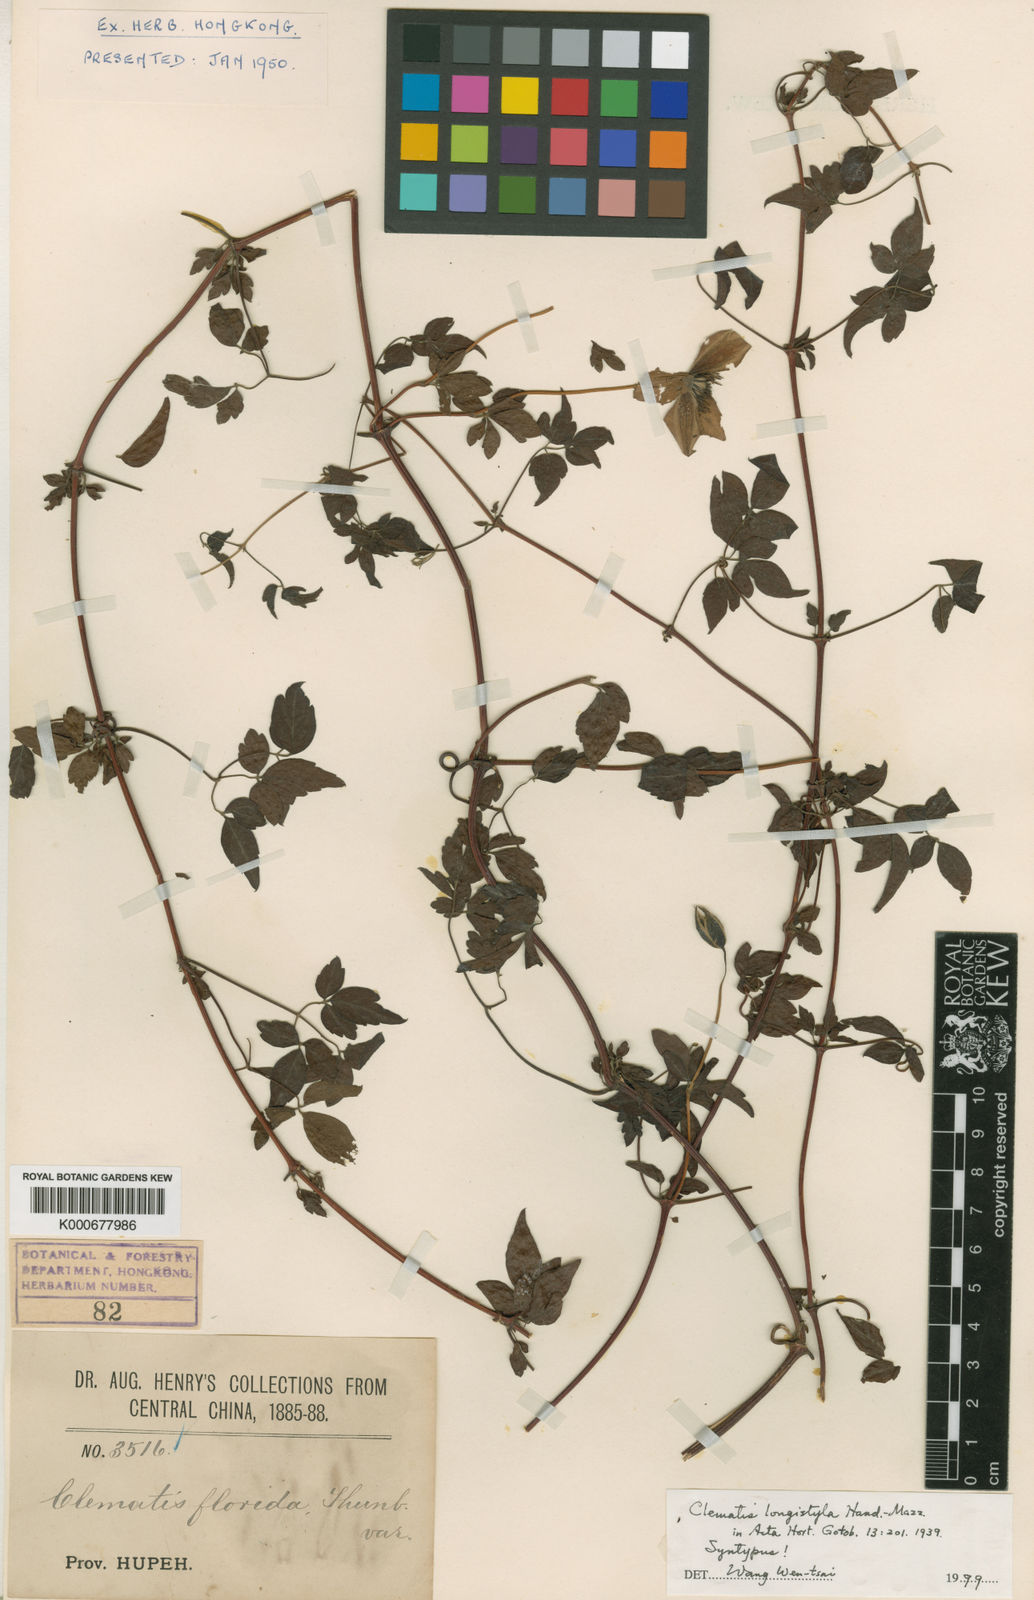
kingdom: Plantae
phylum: Tracheophyta
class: Magnoliopsida
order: Ranunculales
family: Ranunculaceae
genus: Clematis
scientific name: Clematis longistyla
